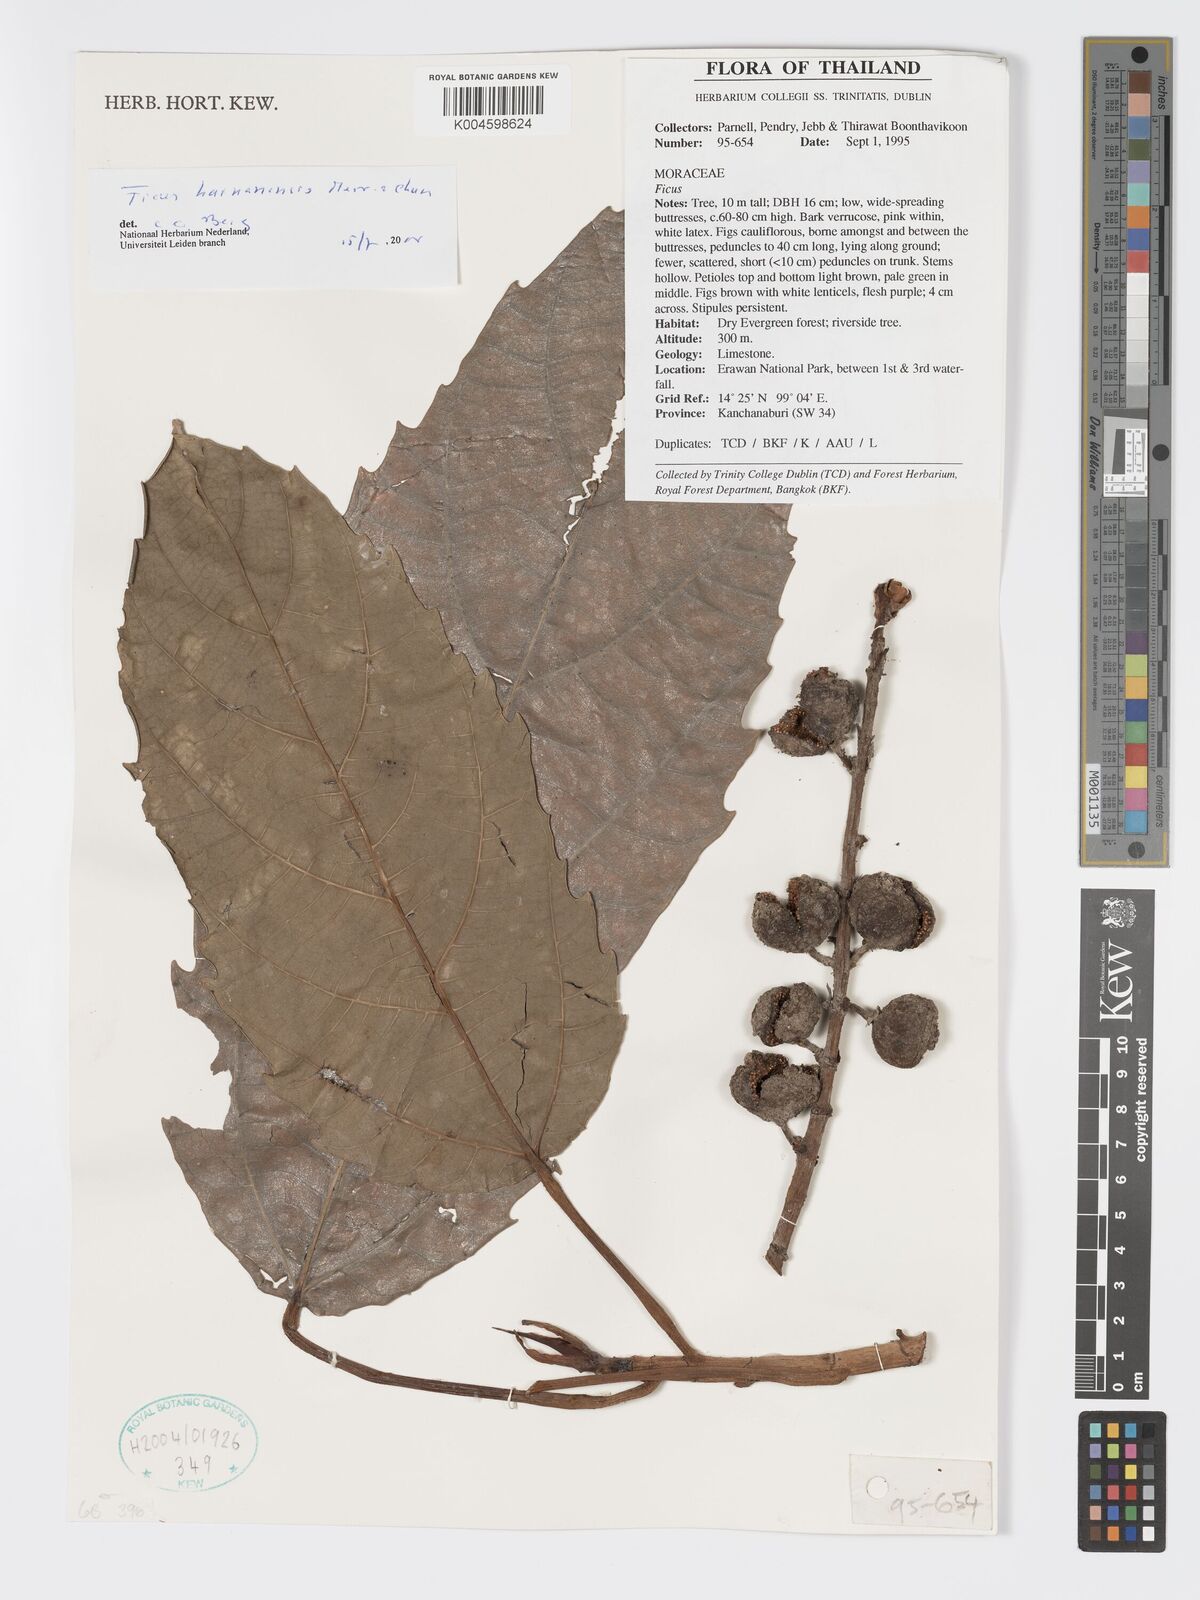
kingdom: Plantae
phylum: Tracheophyta
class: Magnoliopsida
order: Rosales
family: Moraceae
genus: Ficus
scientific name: Ficus auriculata
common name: Roxburgh fig
